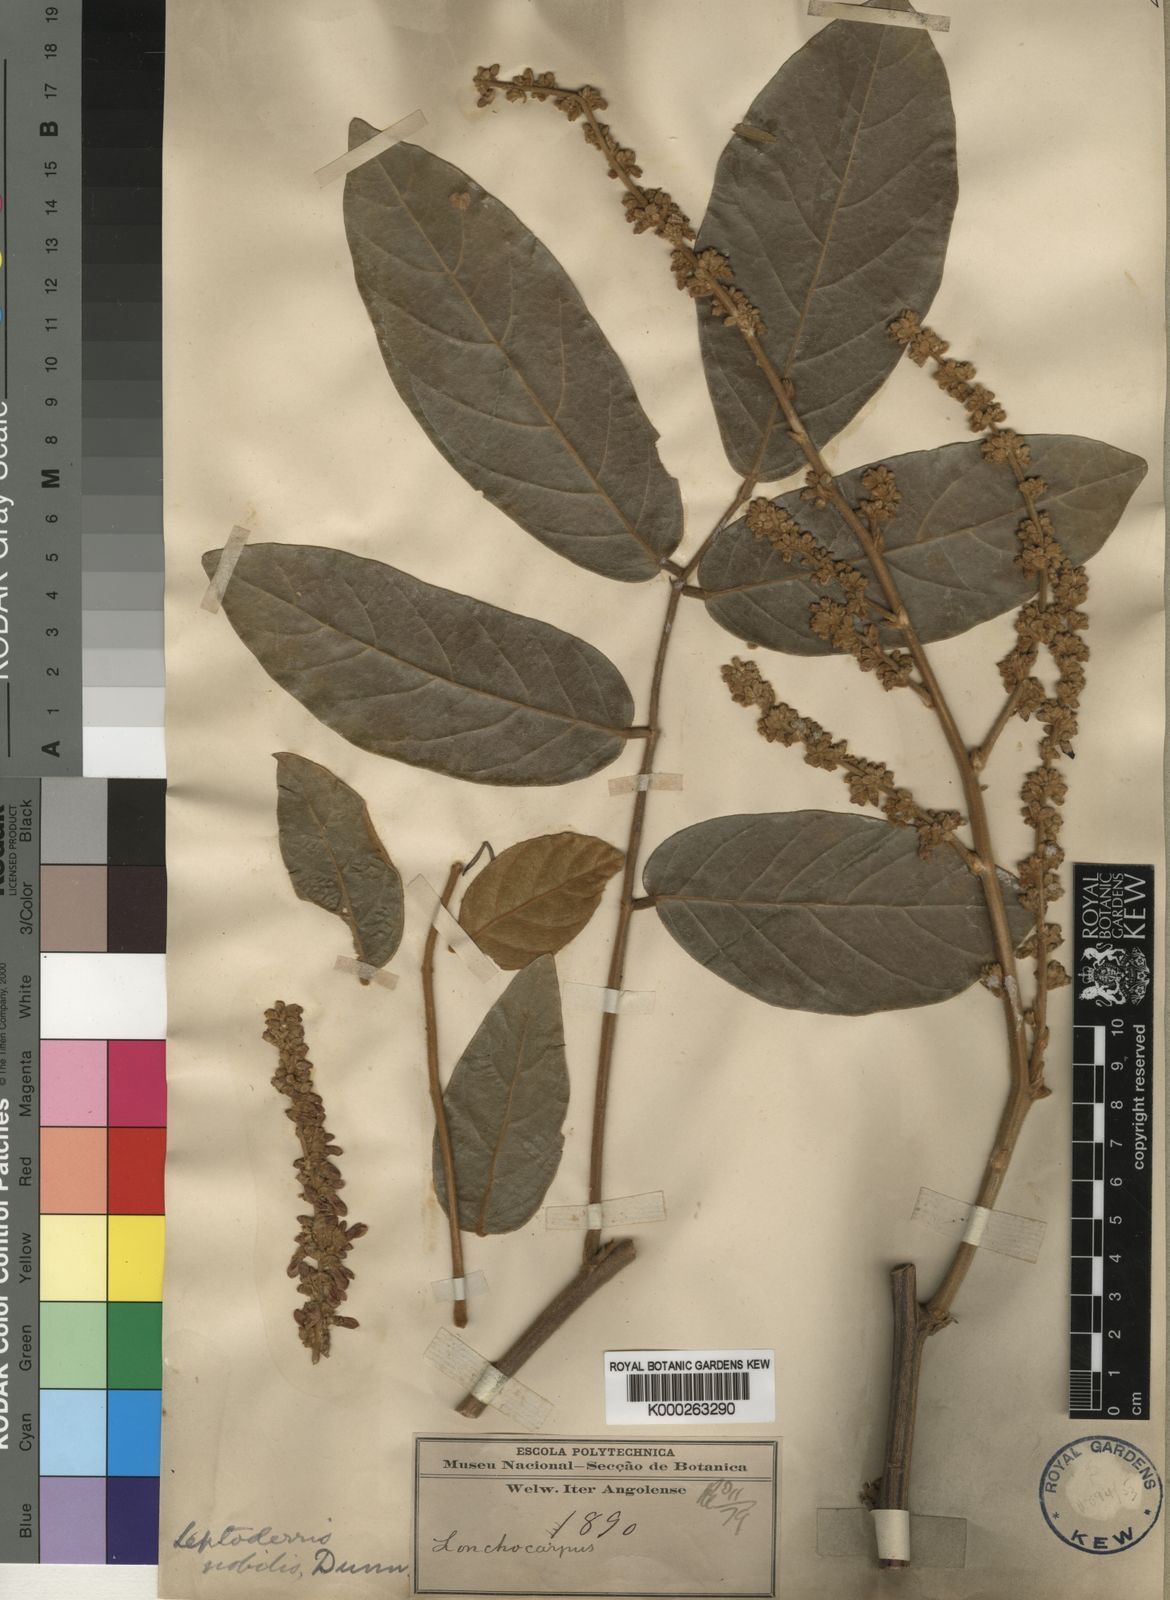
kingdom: Plantae
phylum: Tracheophyta
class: Magnoliopsida
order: Fabales
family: Fabaceae
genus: Leptoderris
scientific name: Leptoderris nobilis
